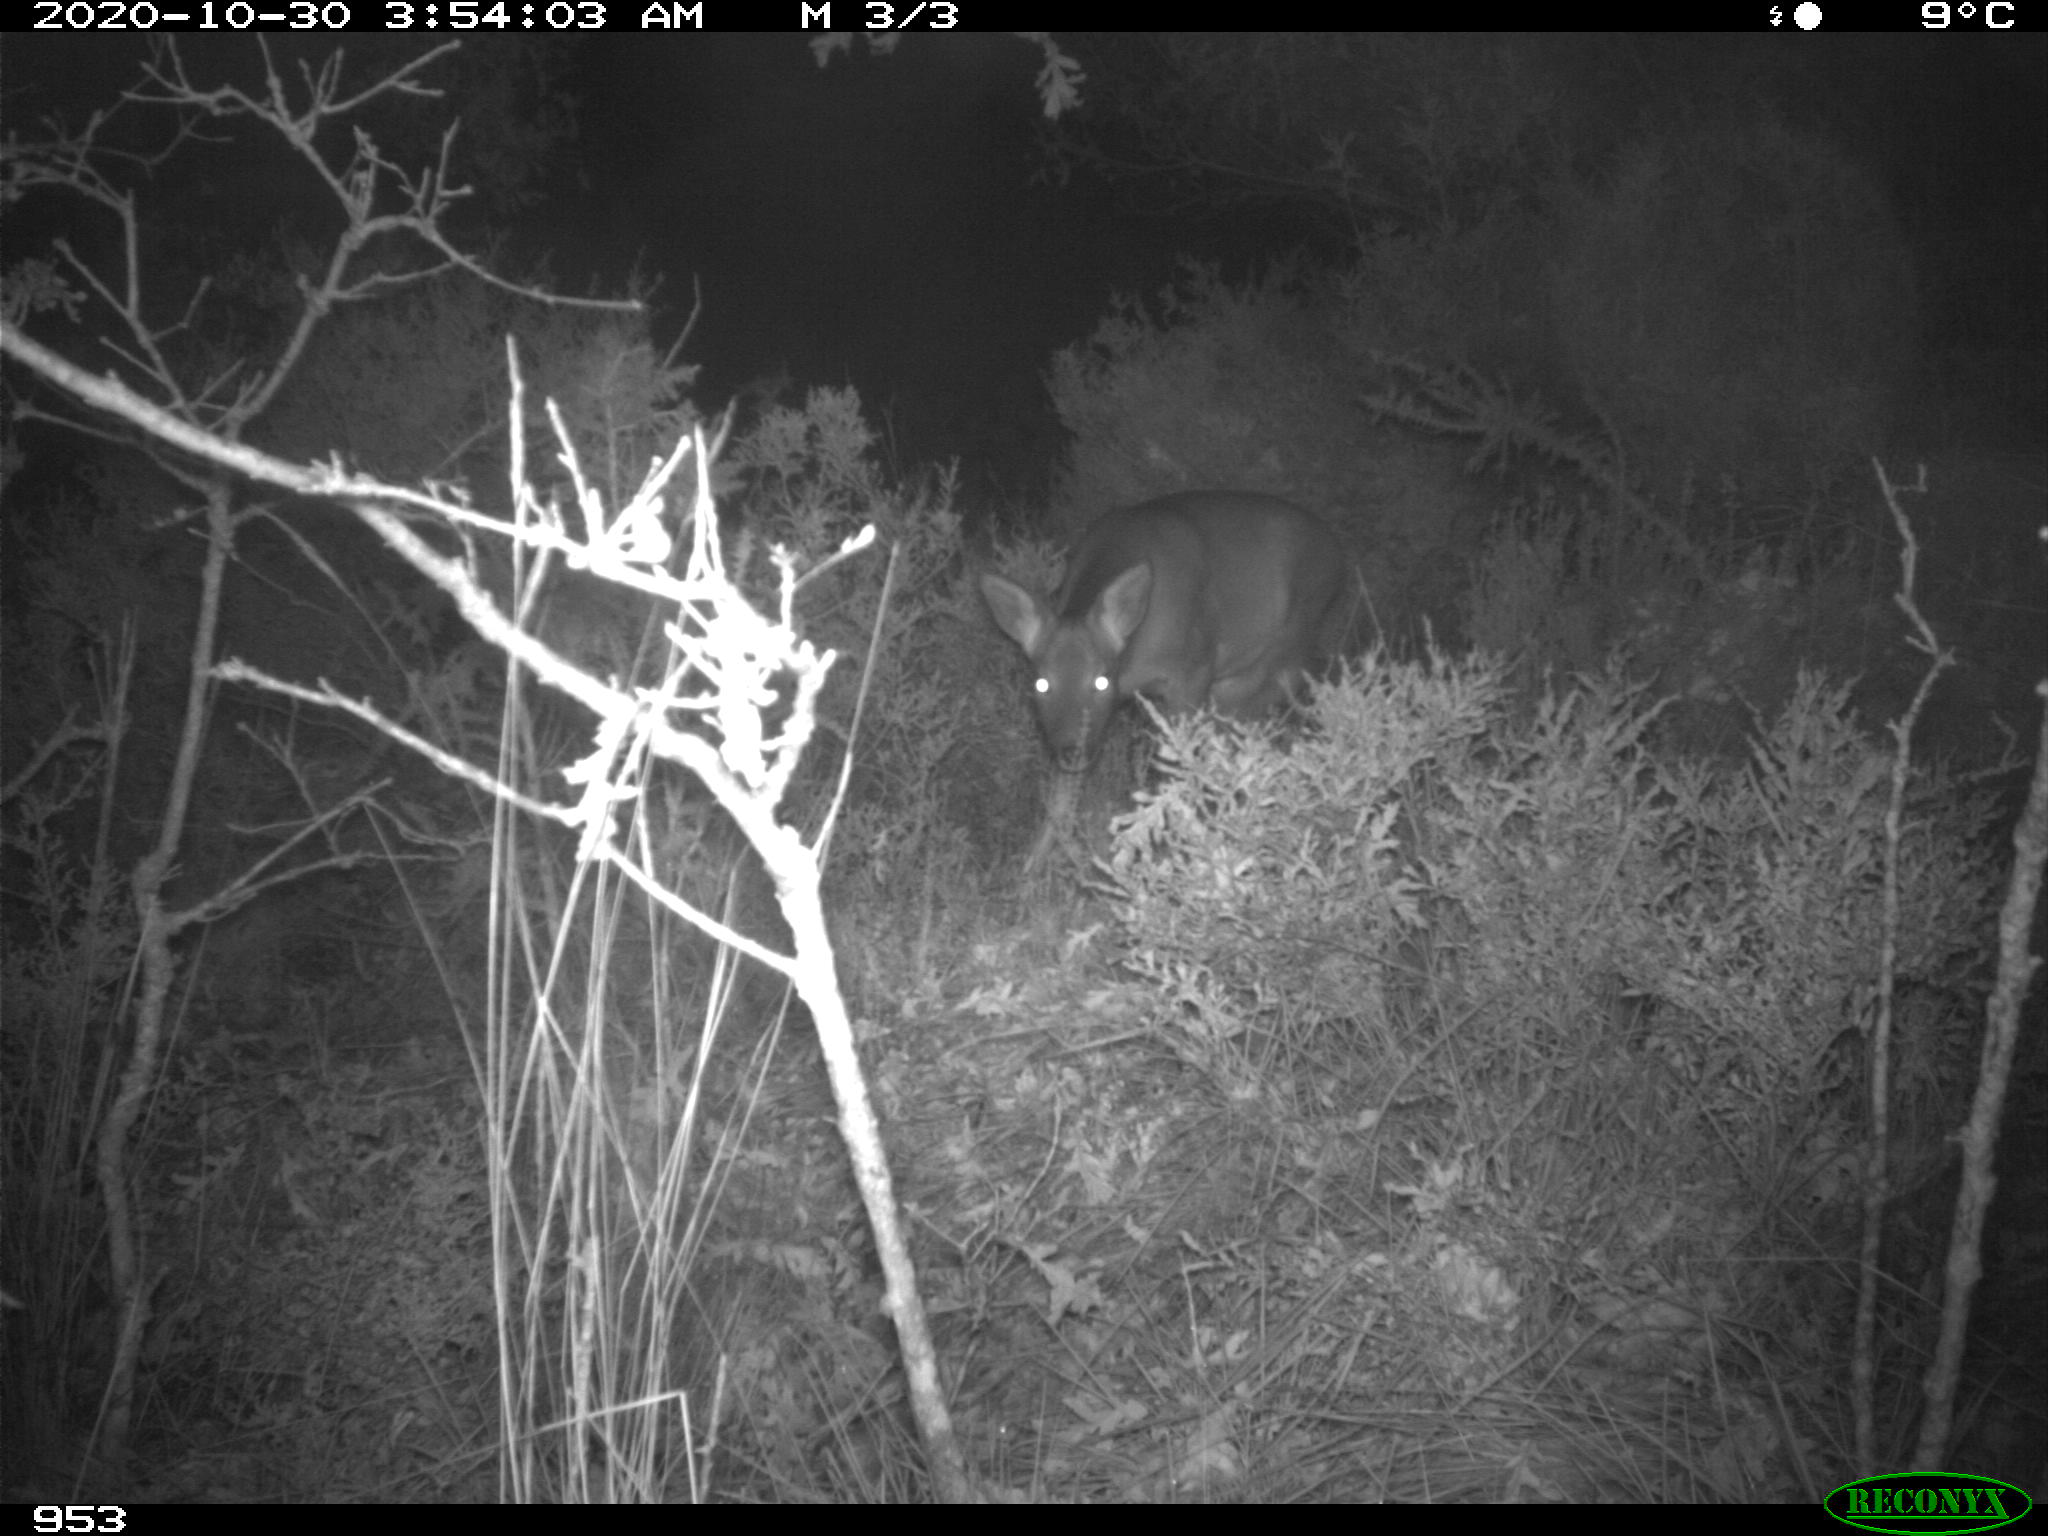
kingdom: Animalia
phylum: Chordata
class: Mammalia
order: Artiodactyla
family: Cervidae
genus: Capreolus
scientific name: Capreolus capreolus
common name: Western roe deer
